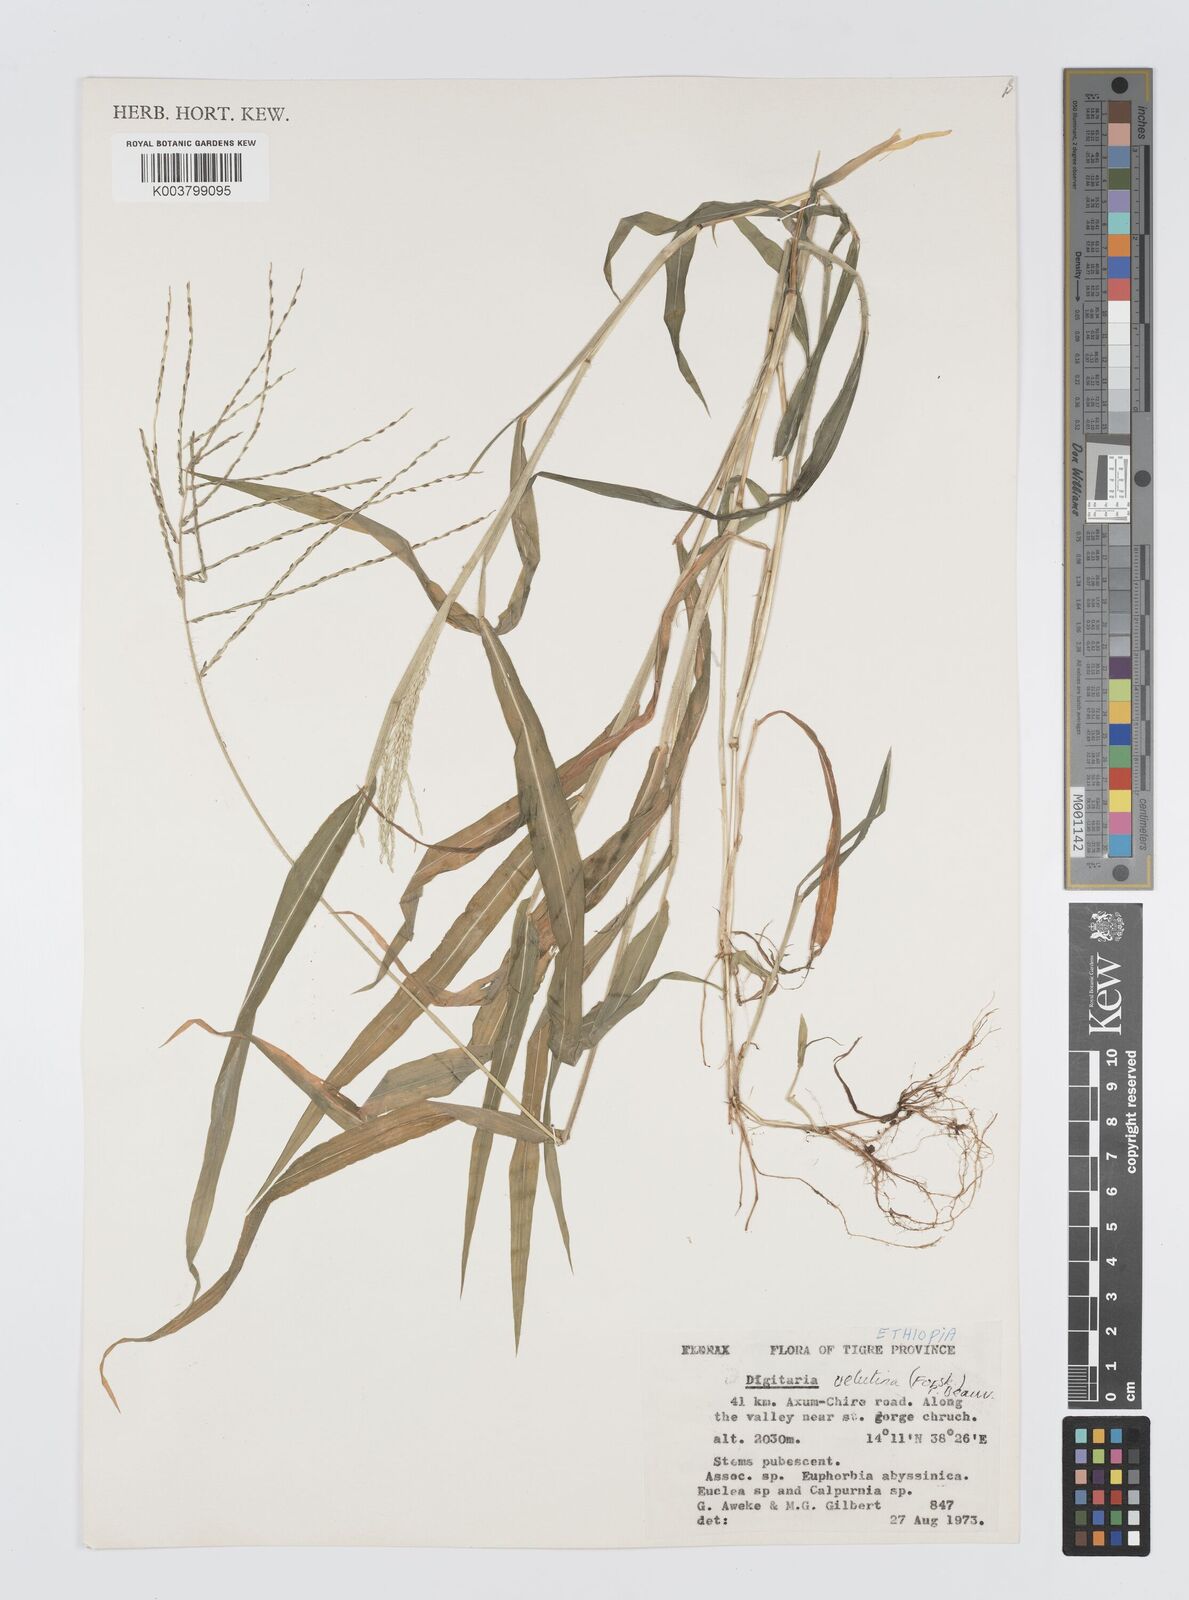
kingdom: Plantae
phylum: Tracheophyta
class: Liliopsida
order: Poales
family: Poaceae
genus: Digitaria
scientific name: Digitaria velutina
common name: Long-plume finger grass
